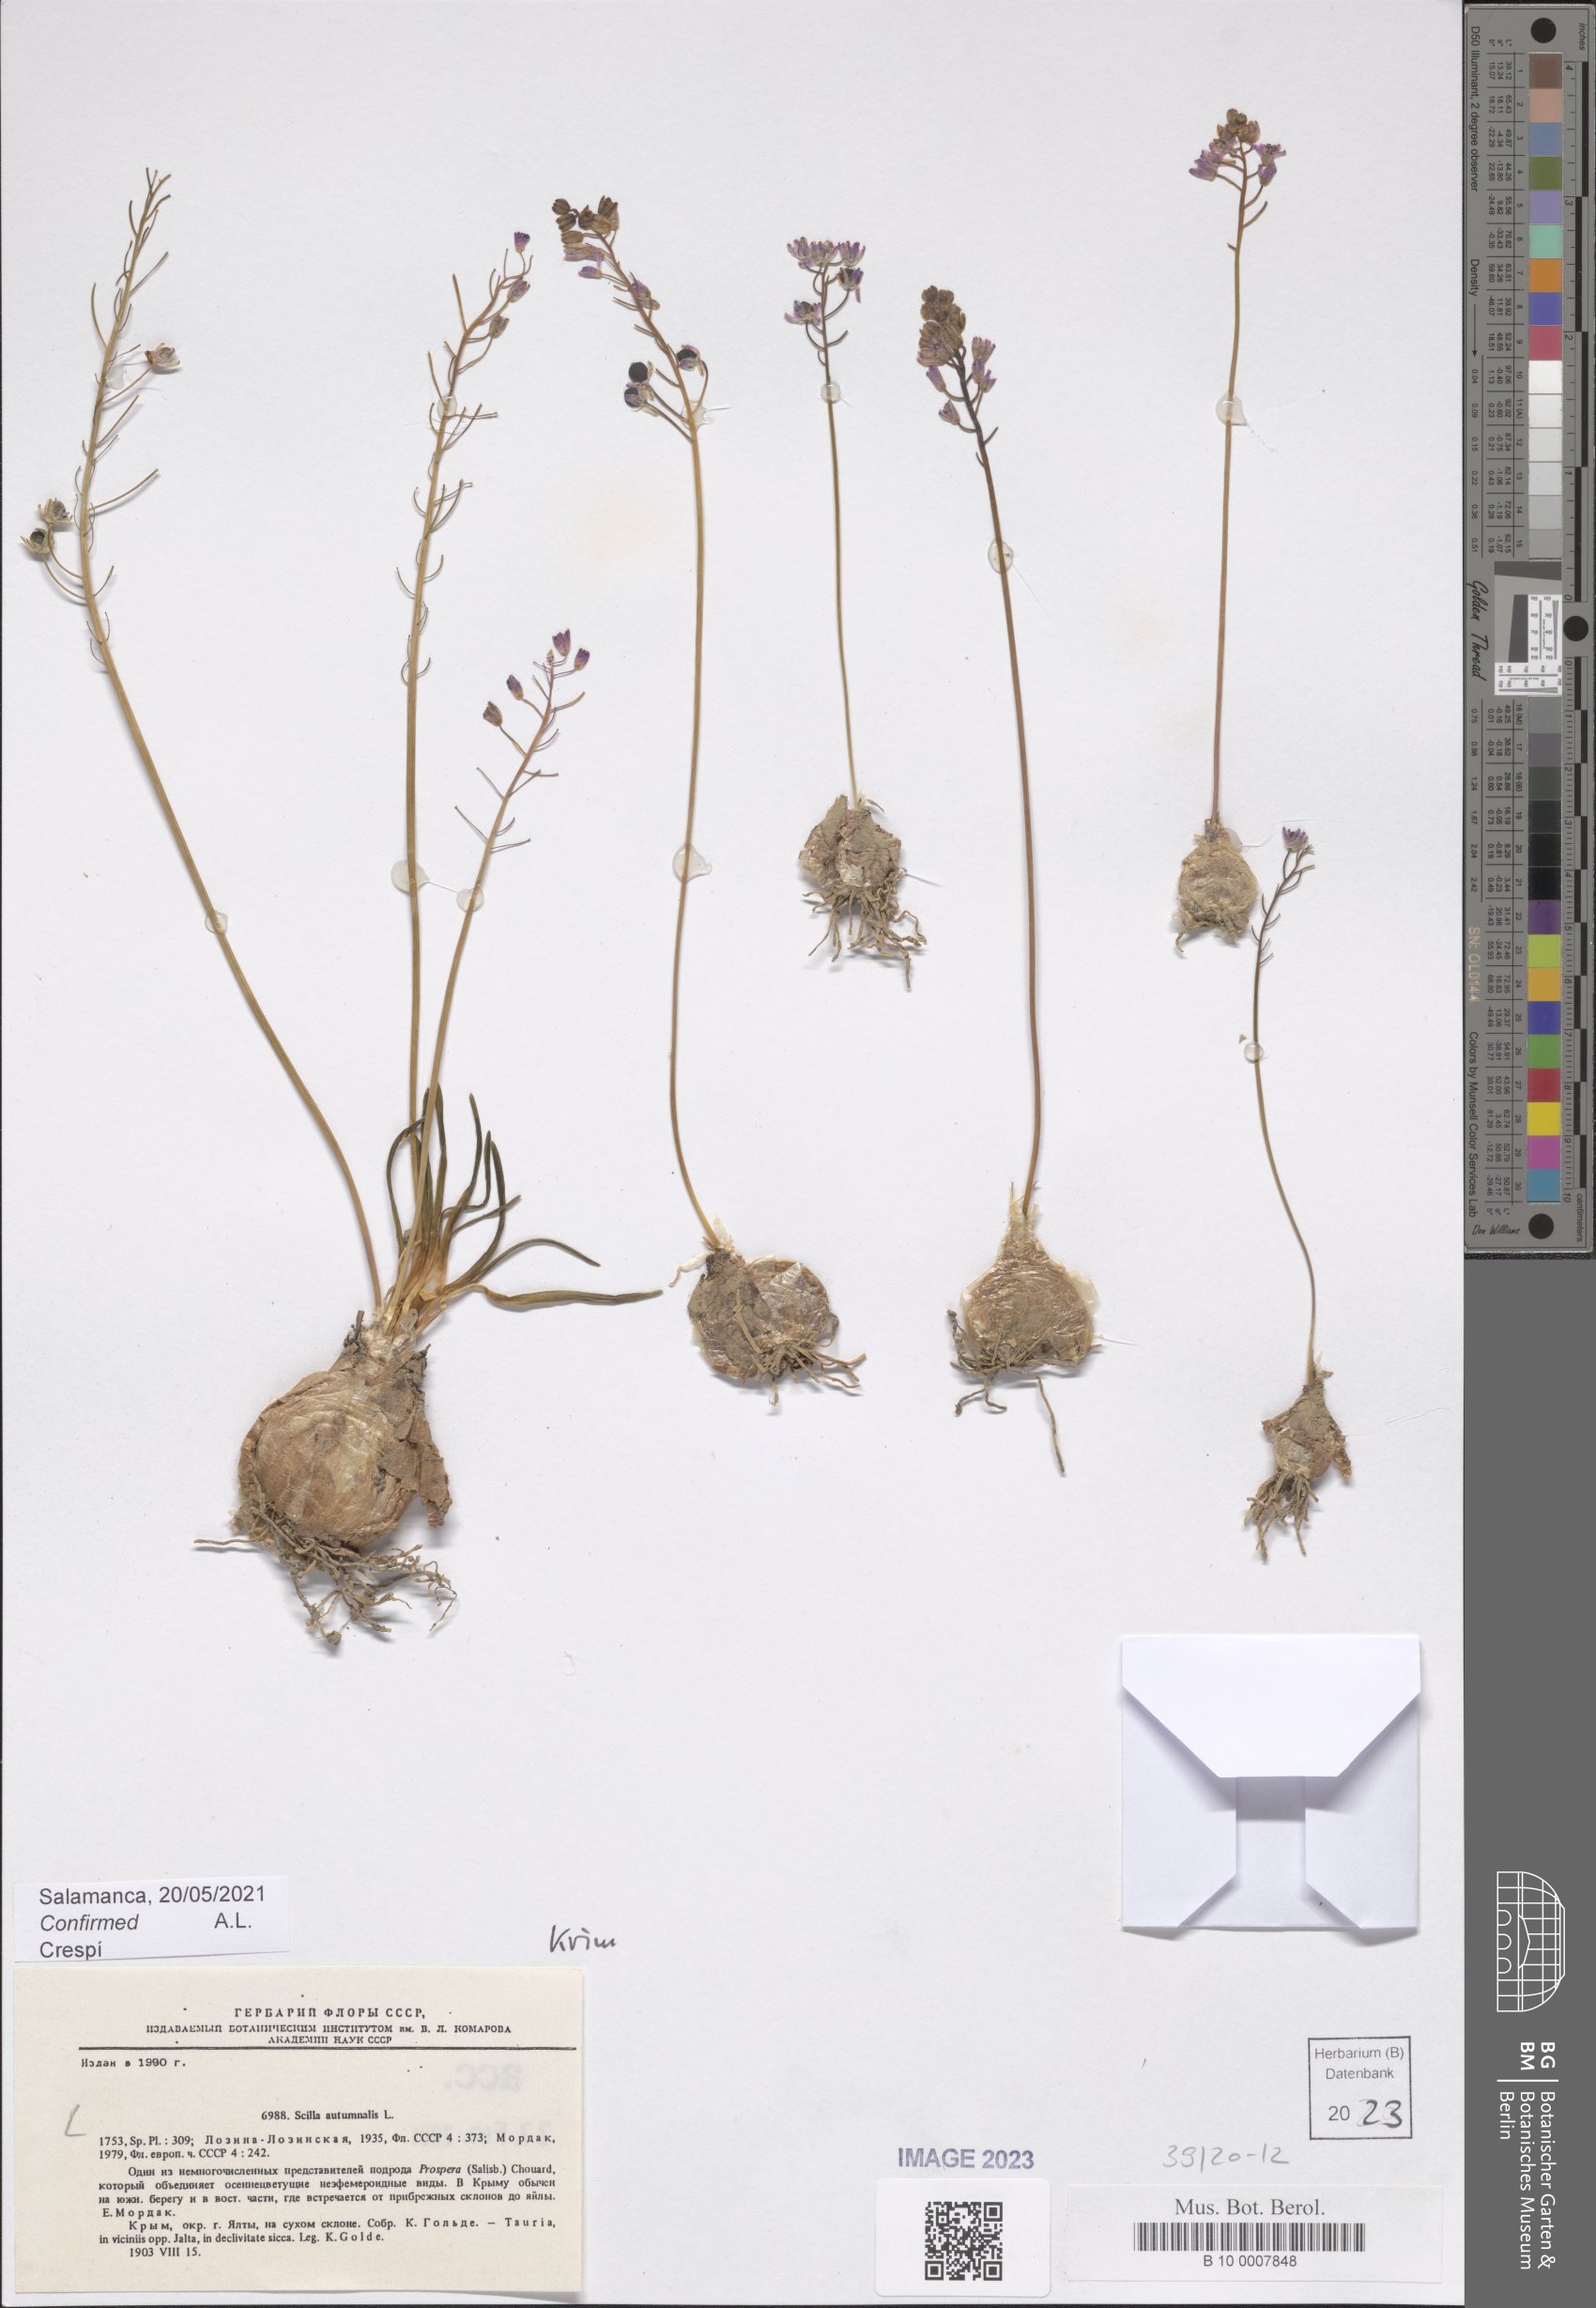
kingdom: Plantae
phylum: Tracheophyta
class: Liliopsida
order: Asparagales
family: Asparagaceae
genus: Prospero
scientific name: Prospero autumnale
